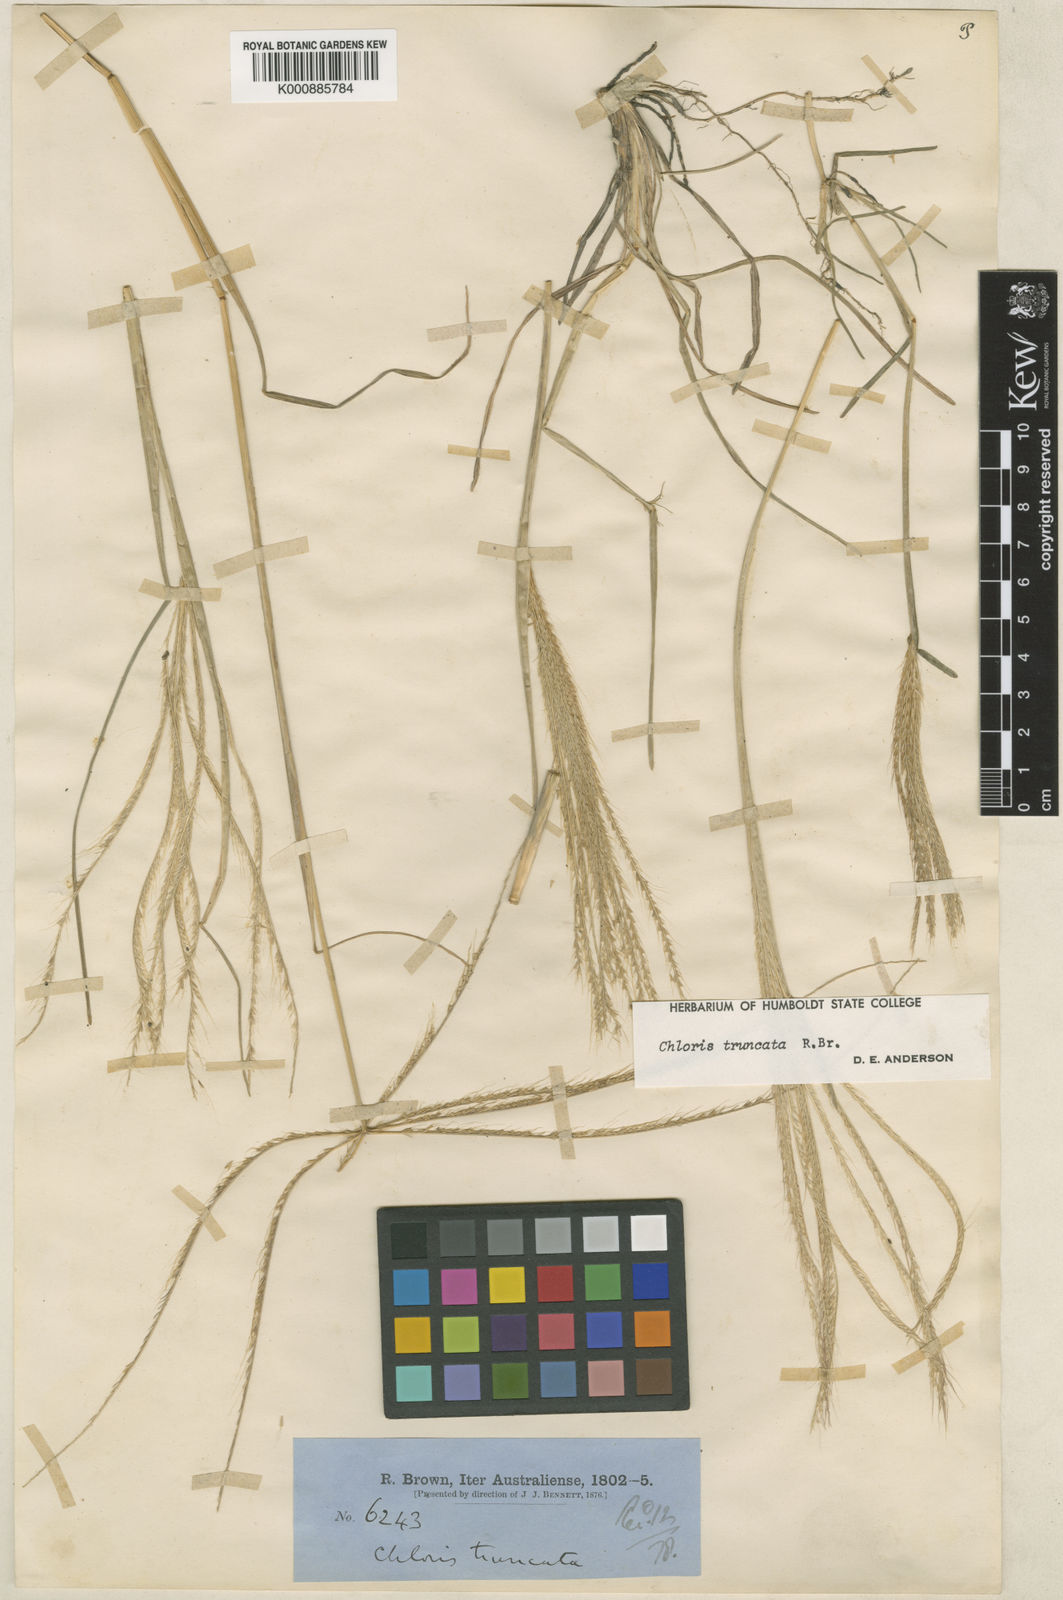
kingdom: Plantae
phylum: Tracheophyta
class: Liliopsida
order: Poales
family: Poaceae
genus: Chloris
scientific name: Chloris truncata
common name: Windmill-grass
